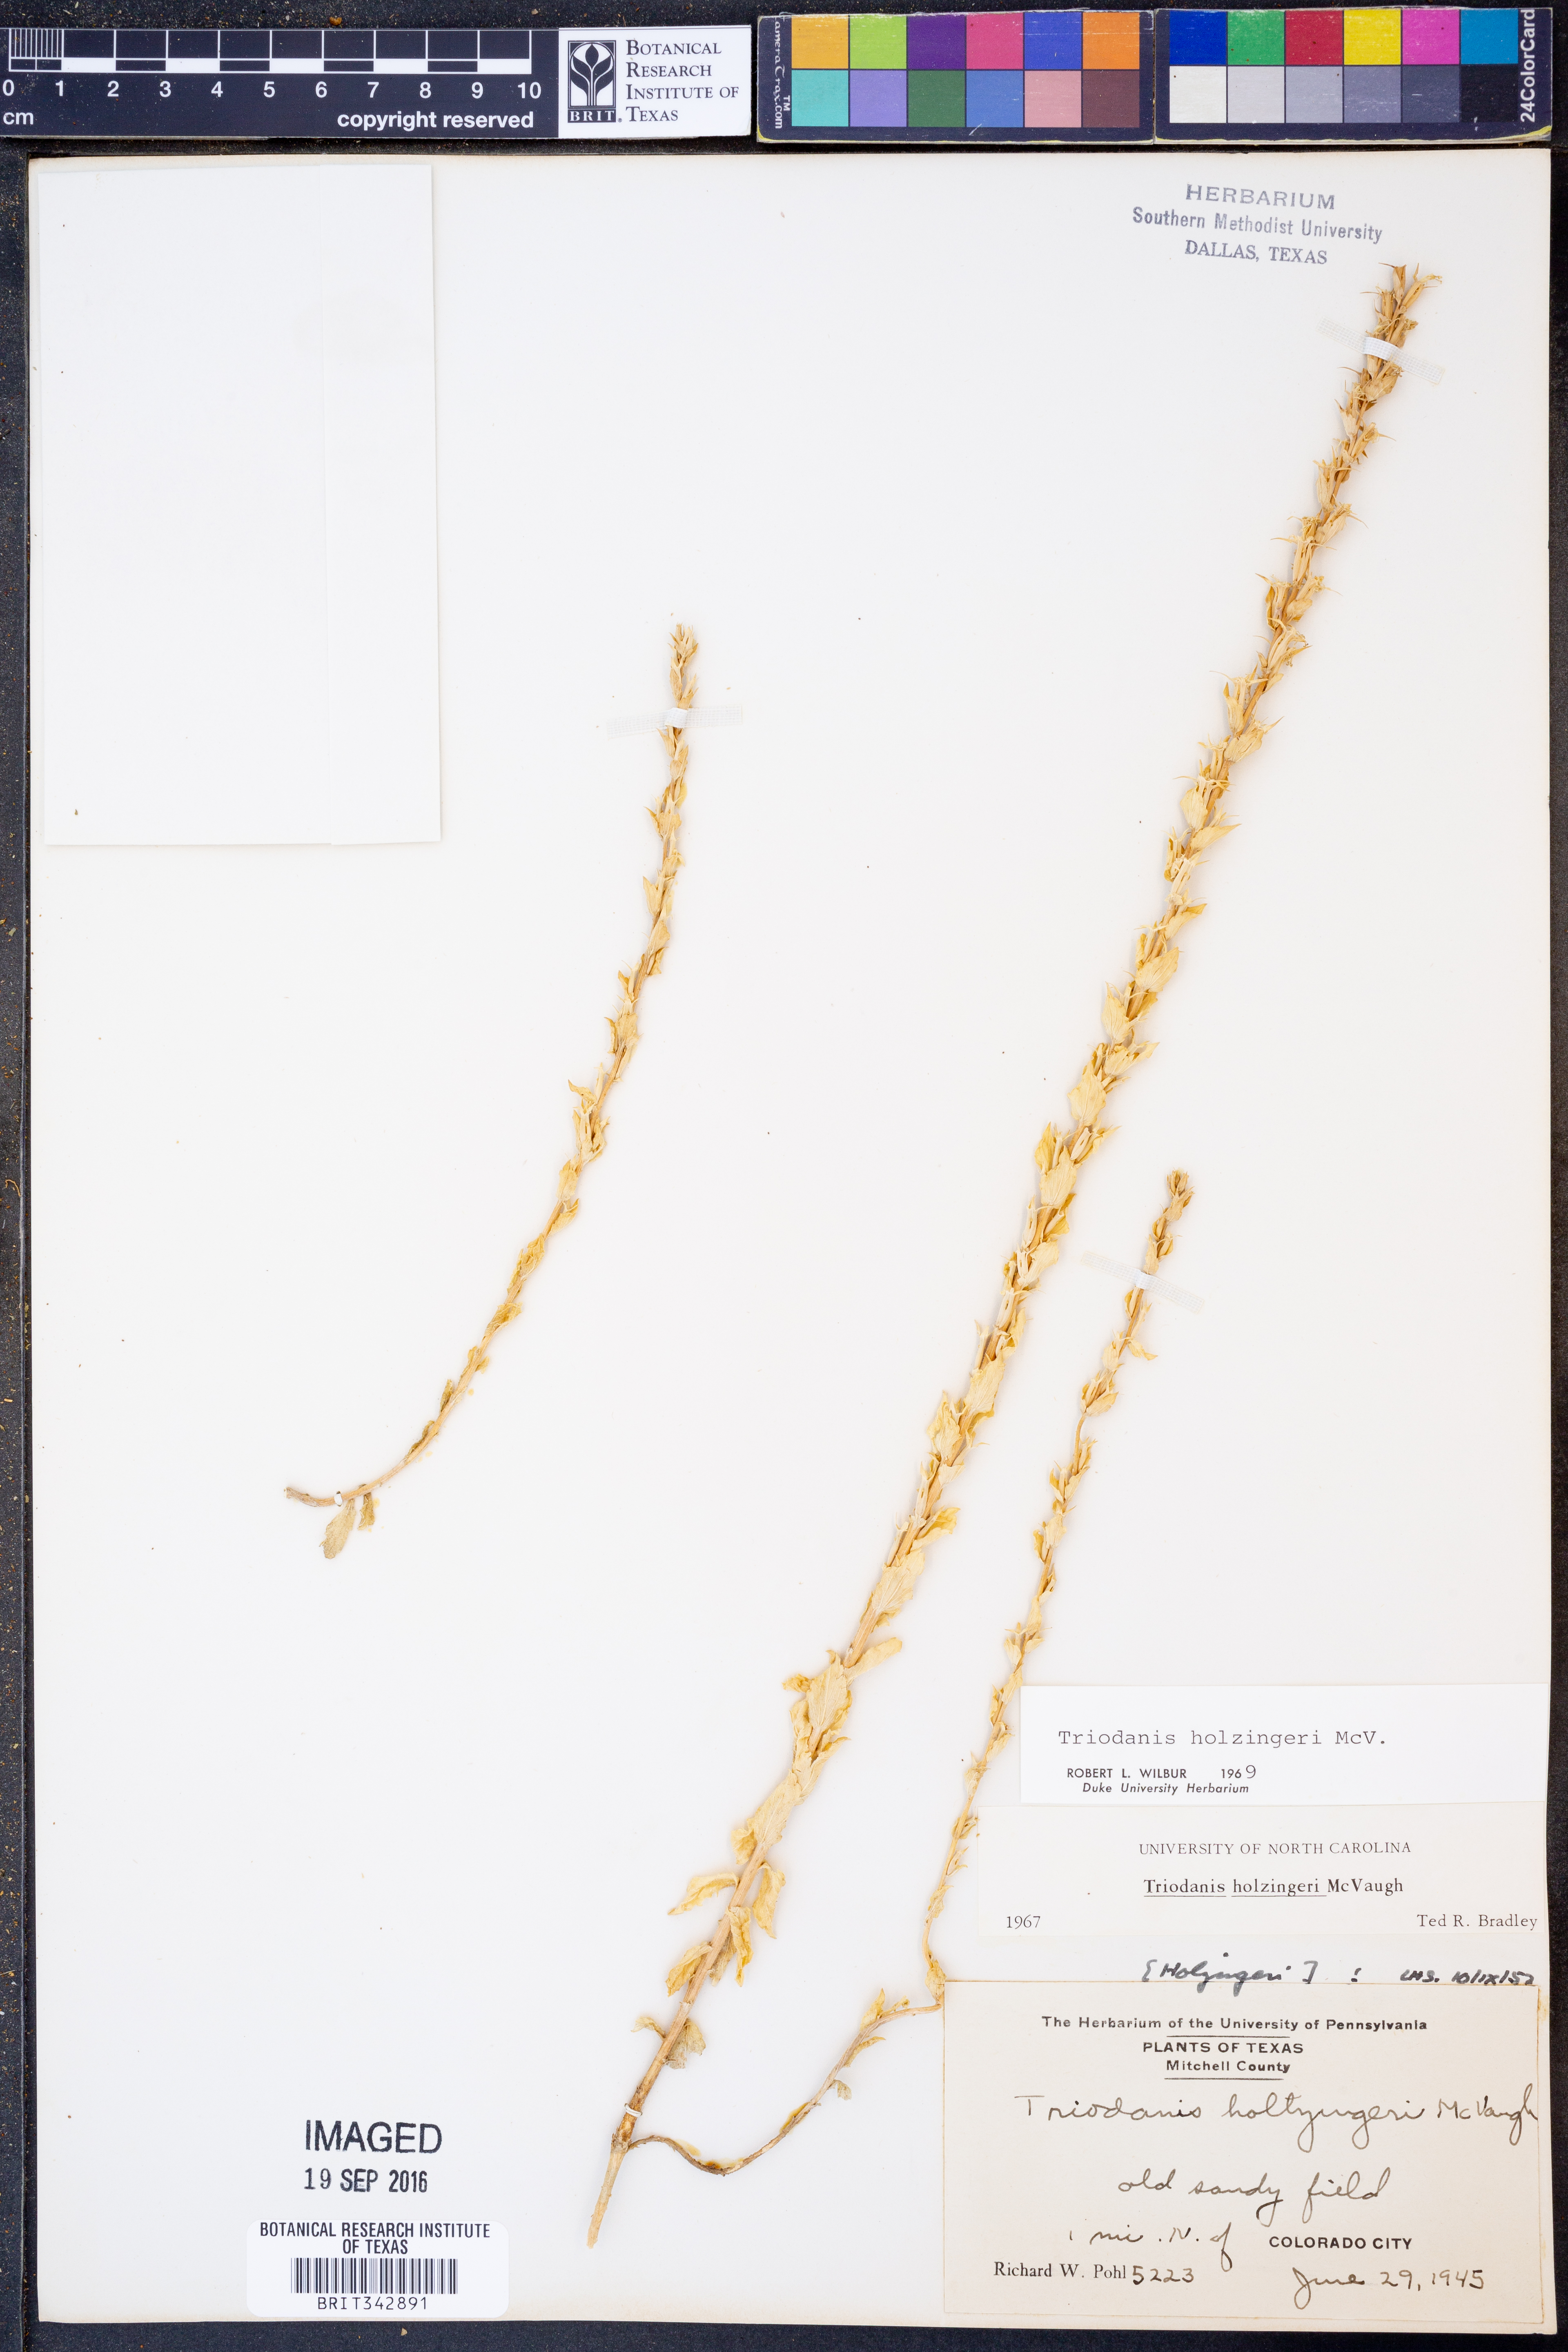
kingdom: Plantae
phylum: Tracheophyta
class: Magnoliopsida
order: Asterales
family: Campanulaceae
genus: Triodanis
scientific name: Triodanis holzingeri
